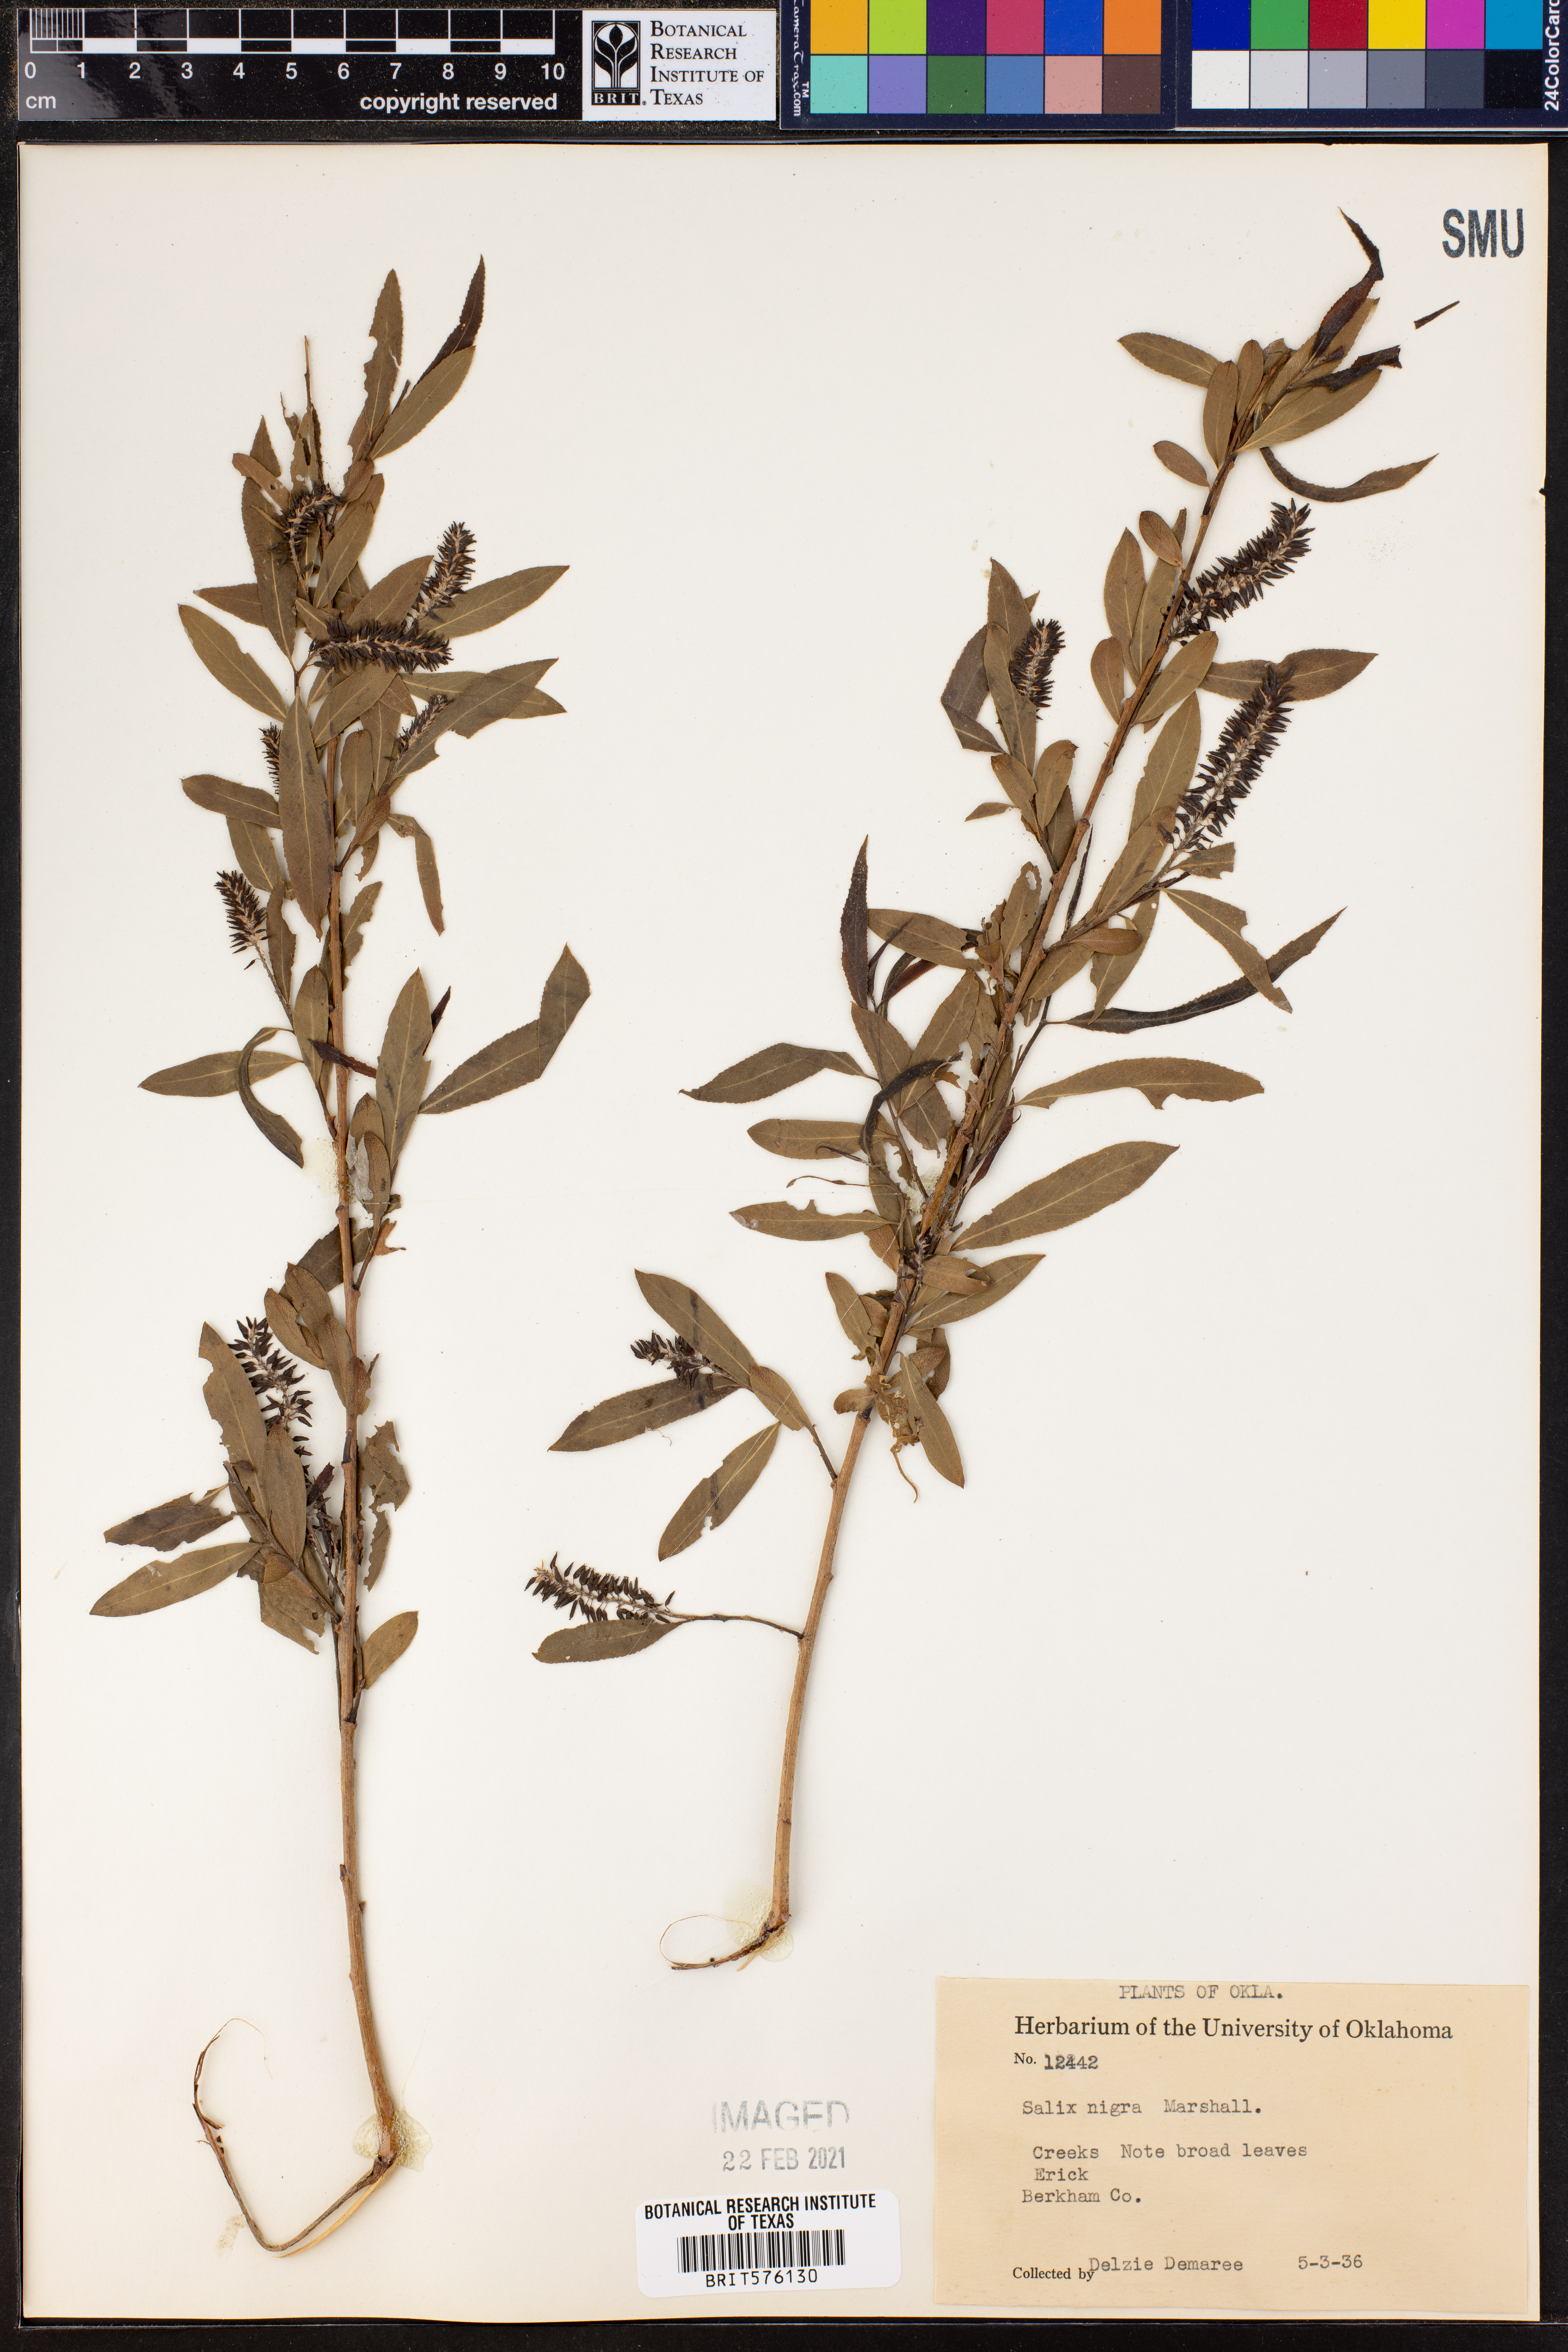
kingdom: Plantae
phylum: Tracheophyta
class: Magnoliopsida
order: Malpighiales
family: Salicaceae
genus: Salix
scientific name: Salix nigra
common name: Black willow
